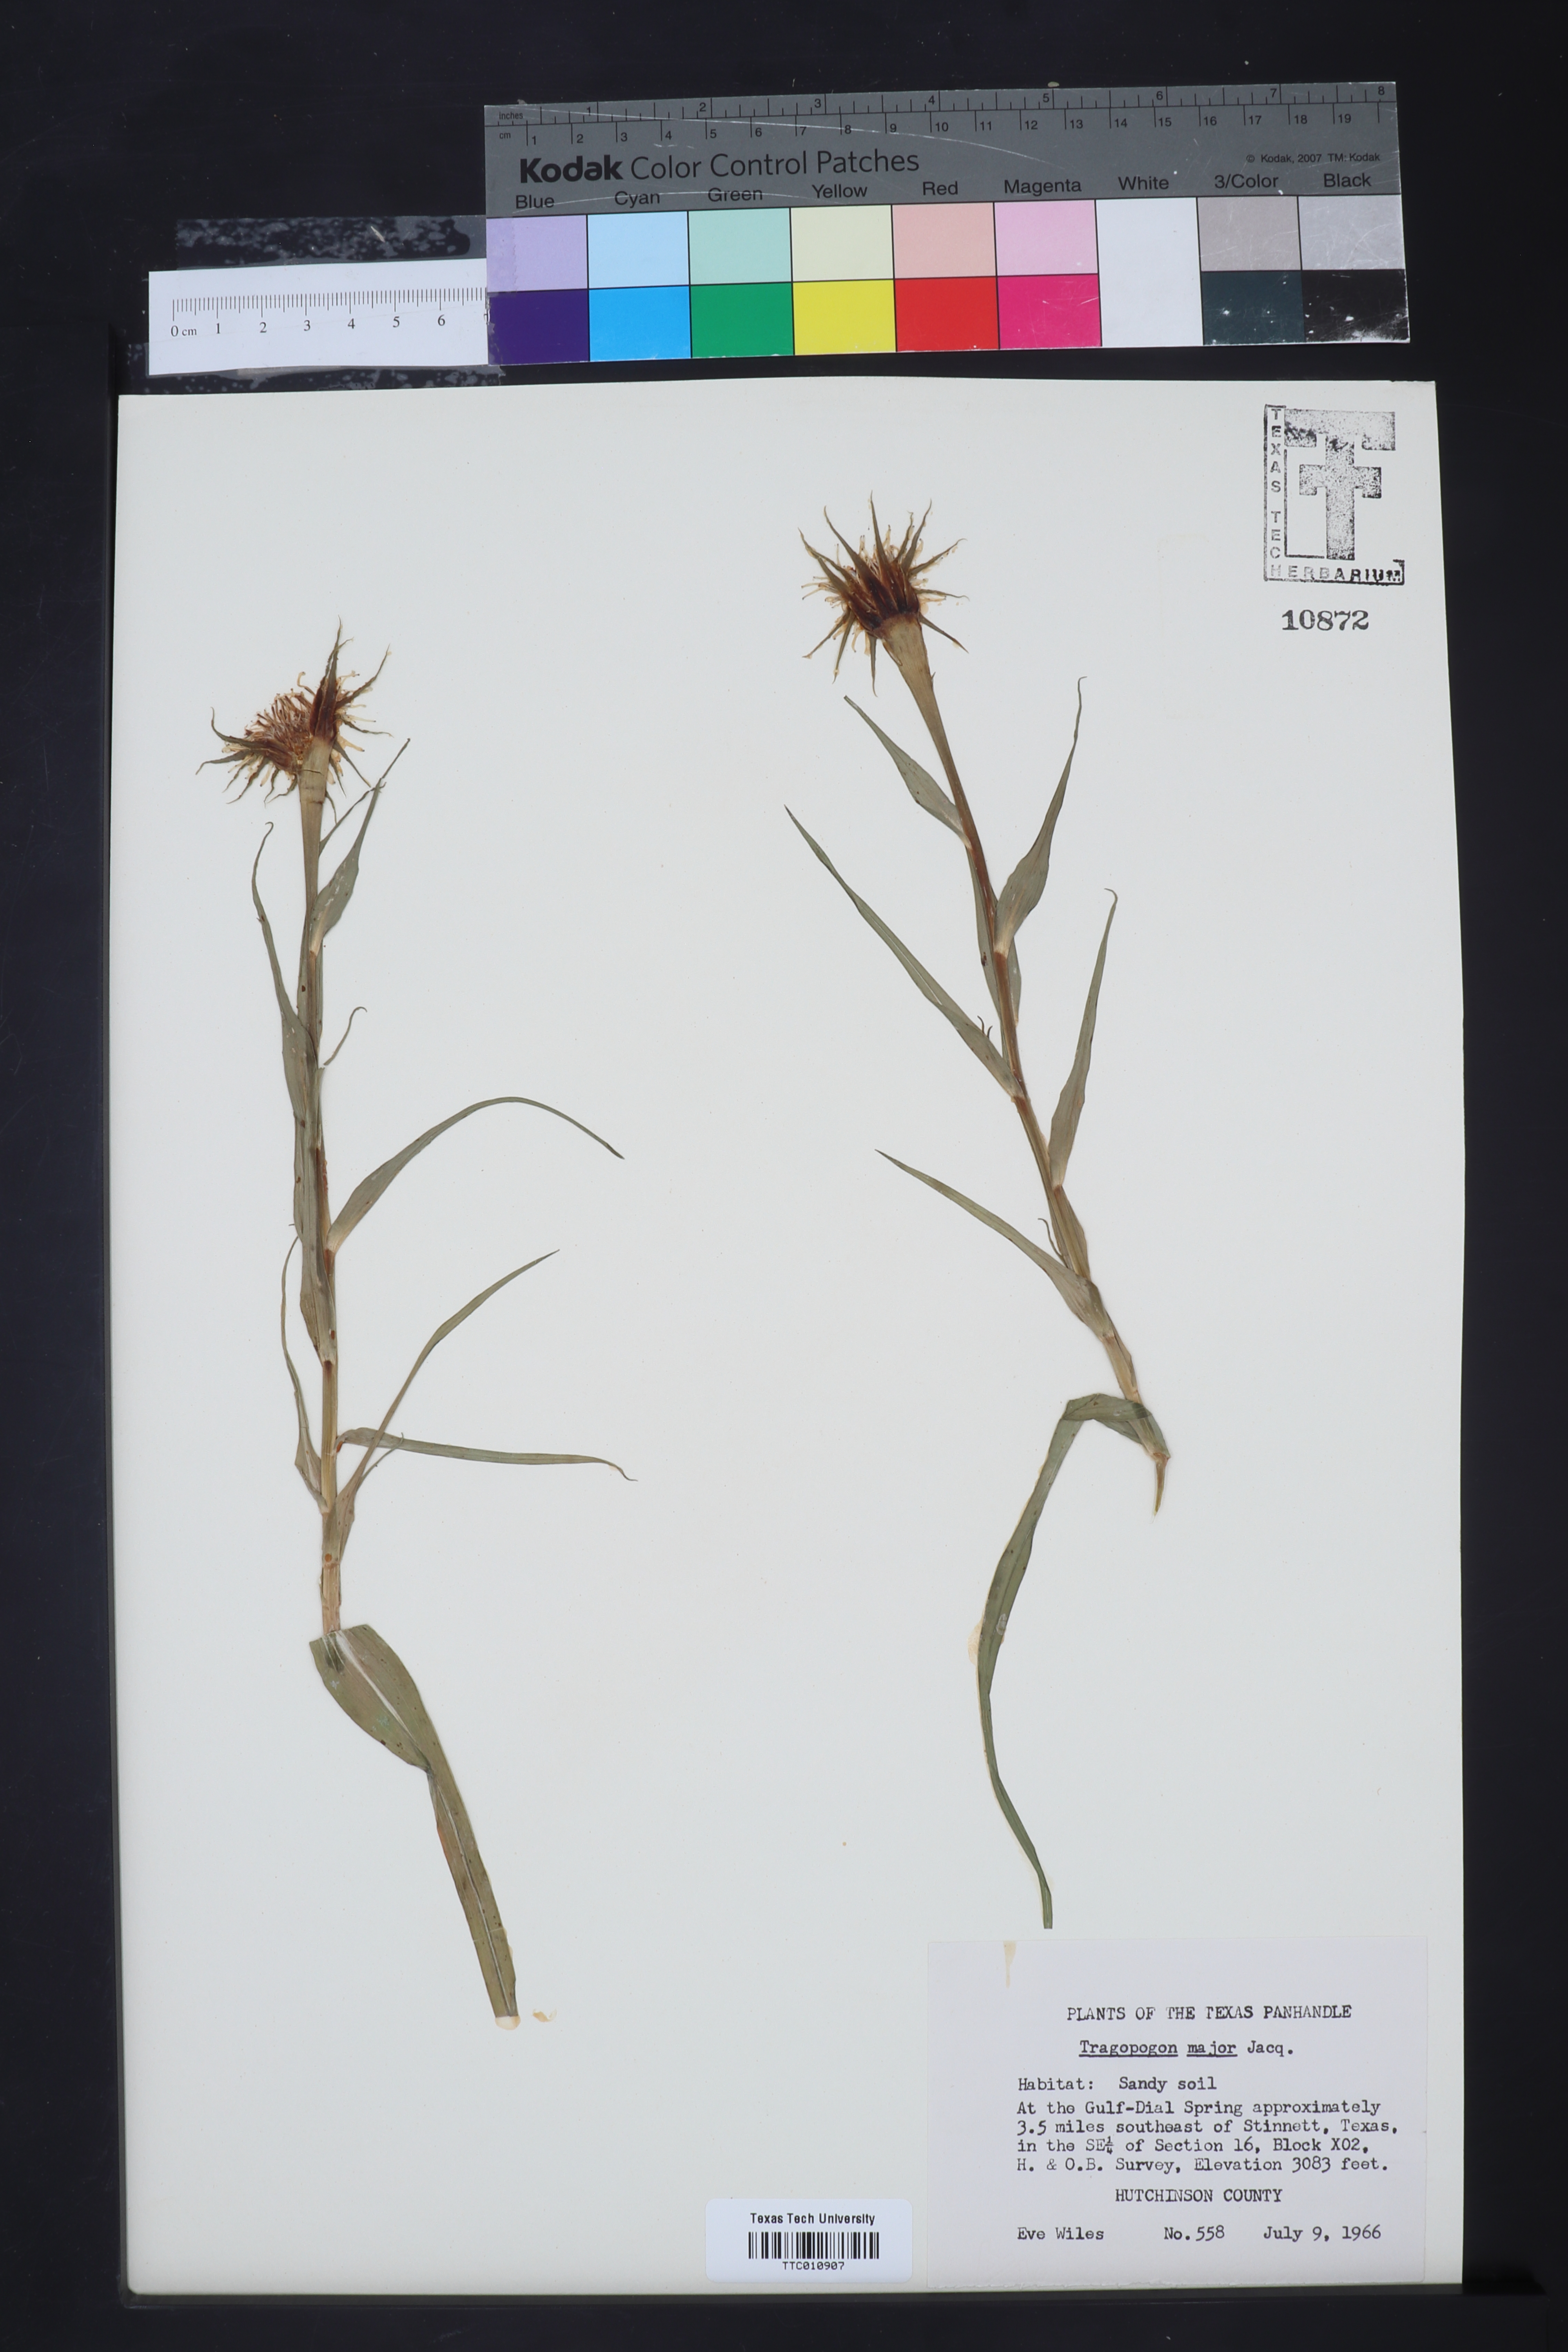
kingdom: Plantae
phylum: Tracheophyta
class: Magnoliopsida
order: Asterales
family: Asteraceae
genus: Tragopogon
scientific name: Tragopogon dubius
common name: Yellow salsify
